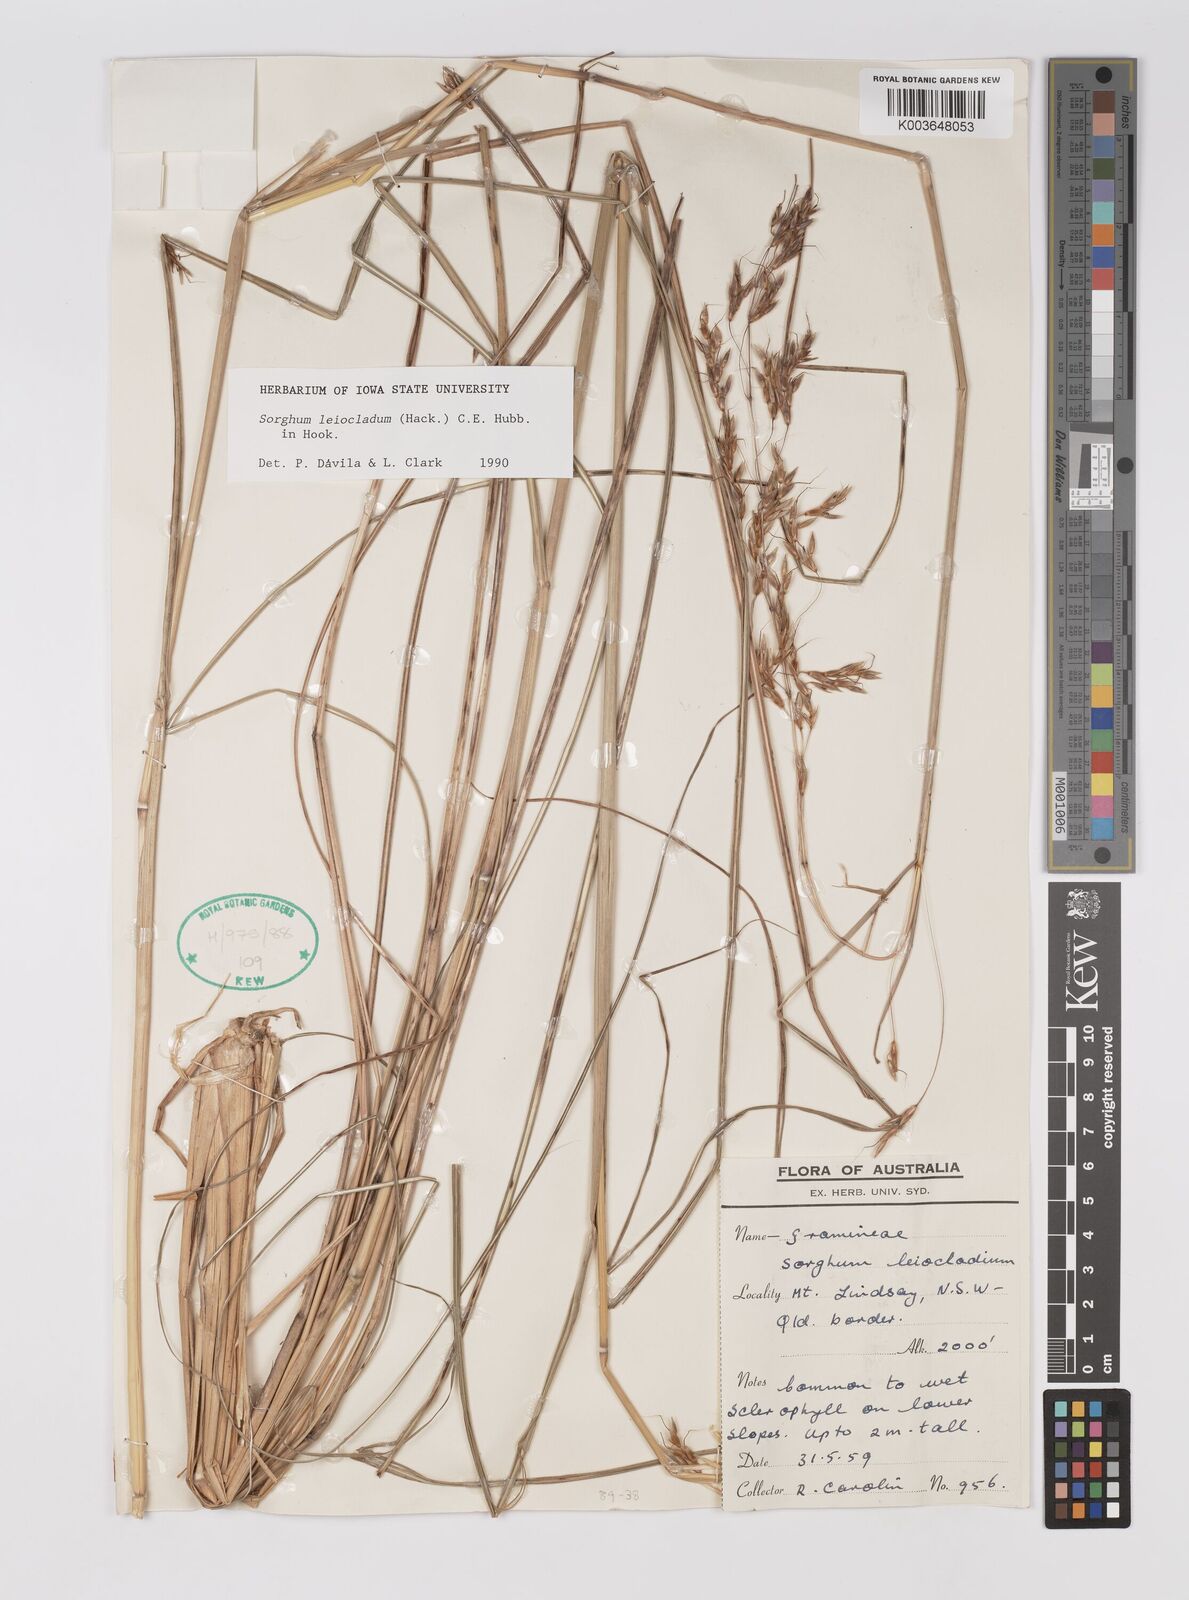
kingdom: Plantae
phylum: Tracheophyta
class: Liliopsida
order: Poales
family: Poaceae
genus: Sarga
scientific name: Sarga leioclada
